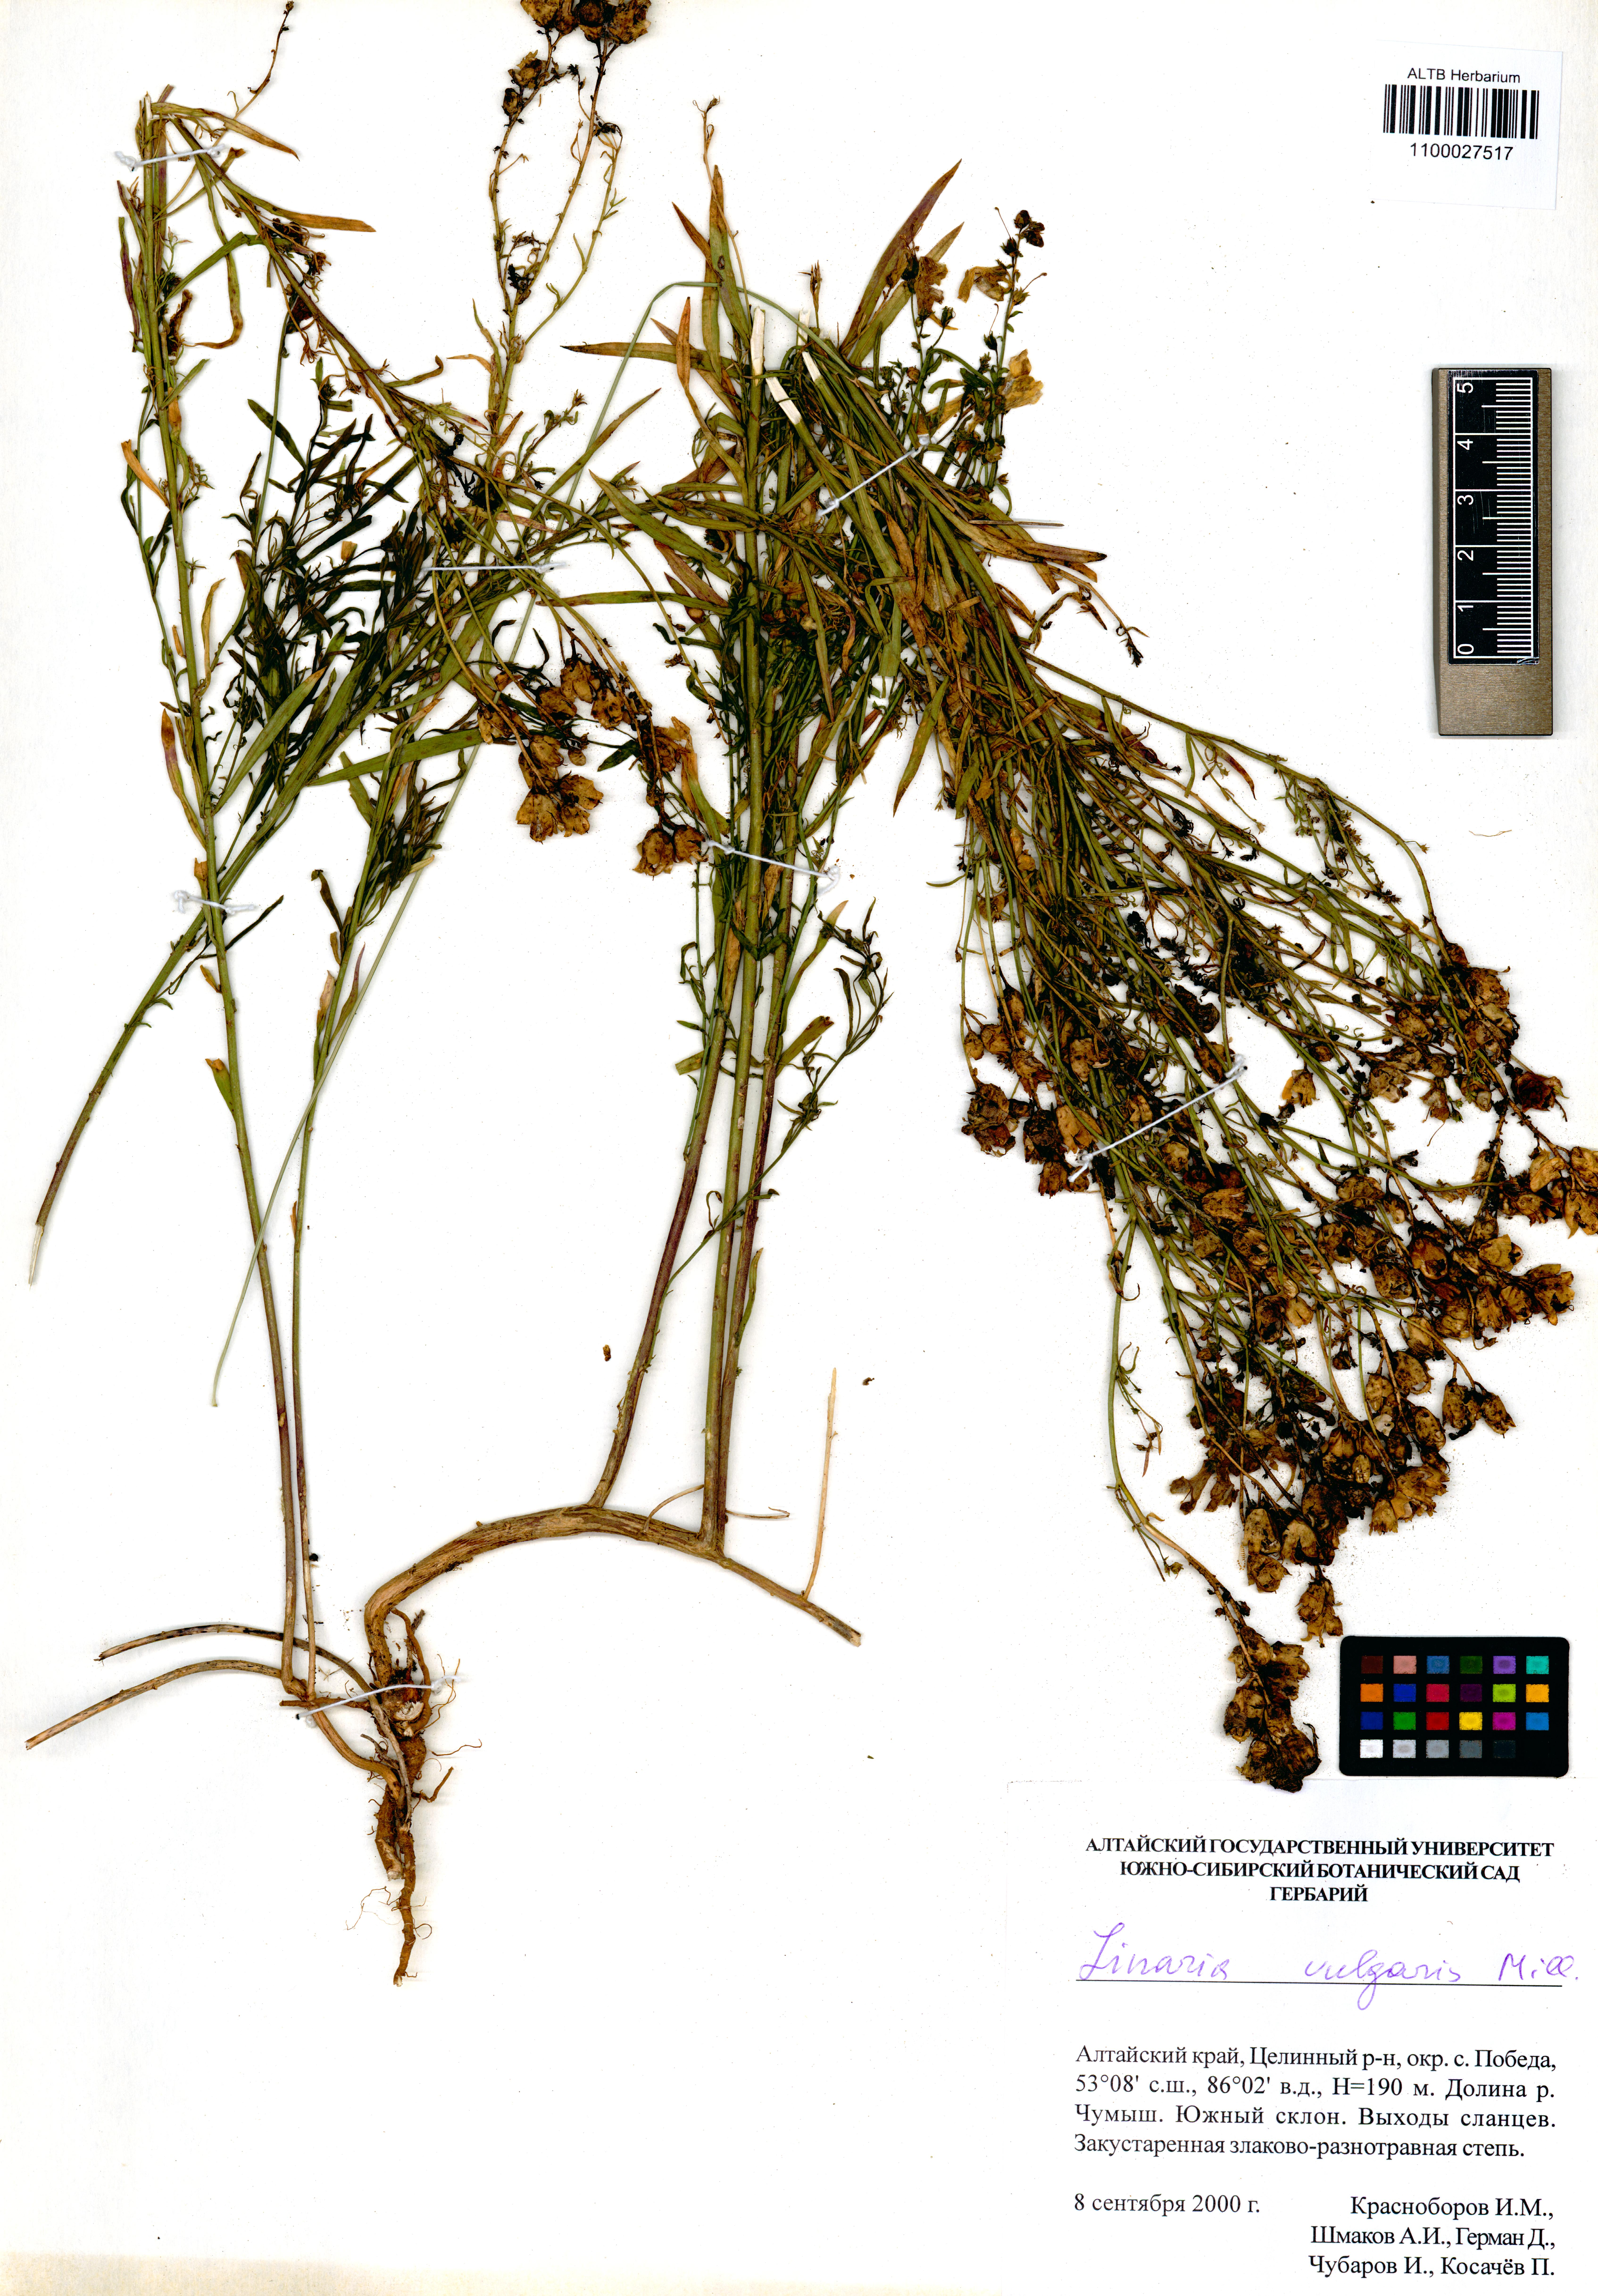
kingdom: Plantae
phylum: Tracheophyta
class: Magnoliopsida
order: Lamiales
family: Plantaginaceae
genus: Linaria
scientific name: Linaria vulgaris
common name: Butter and eggs
